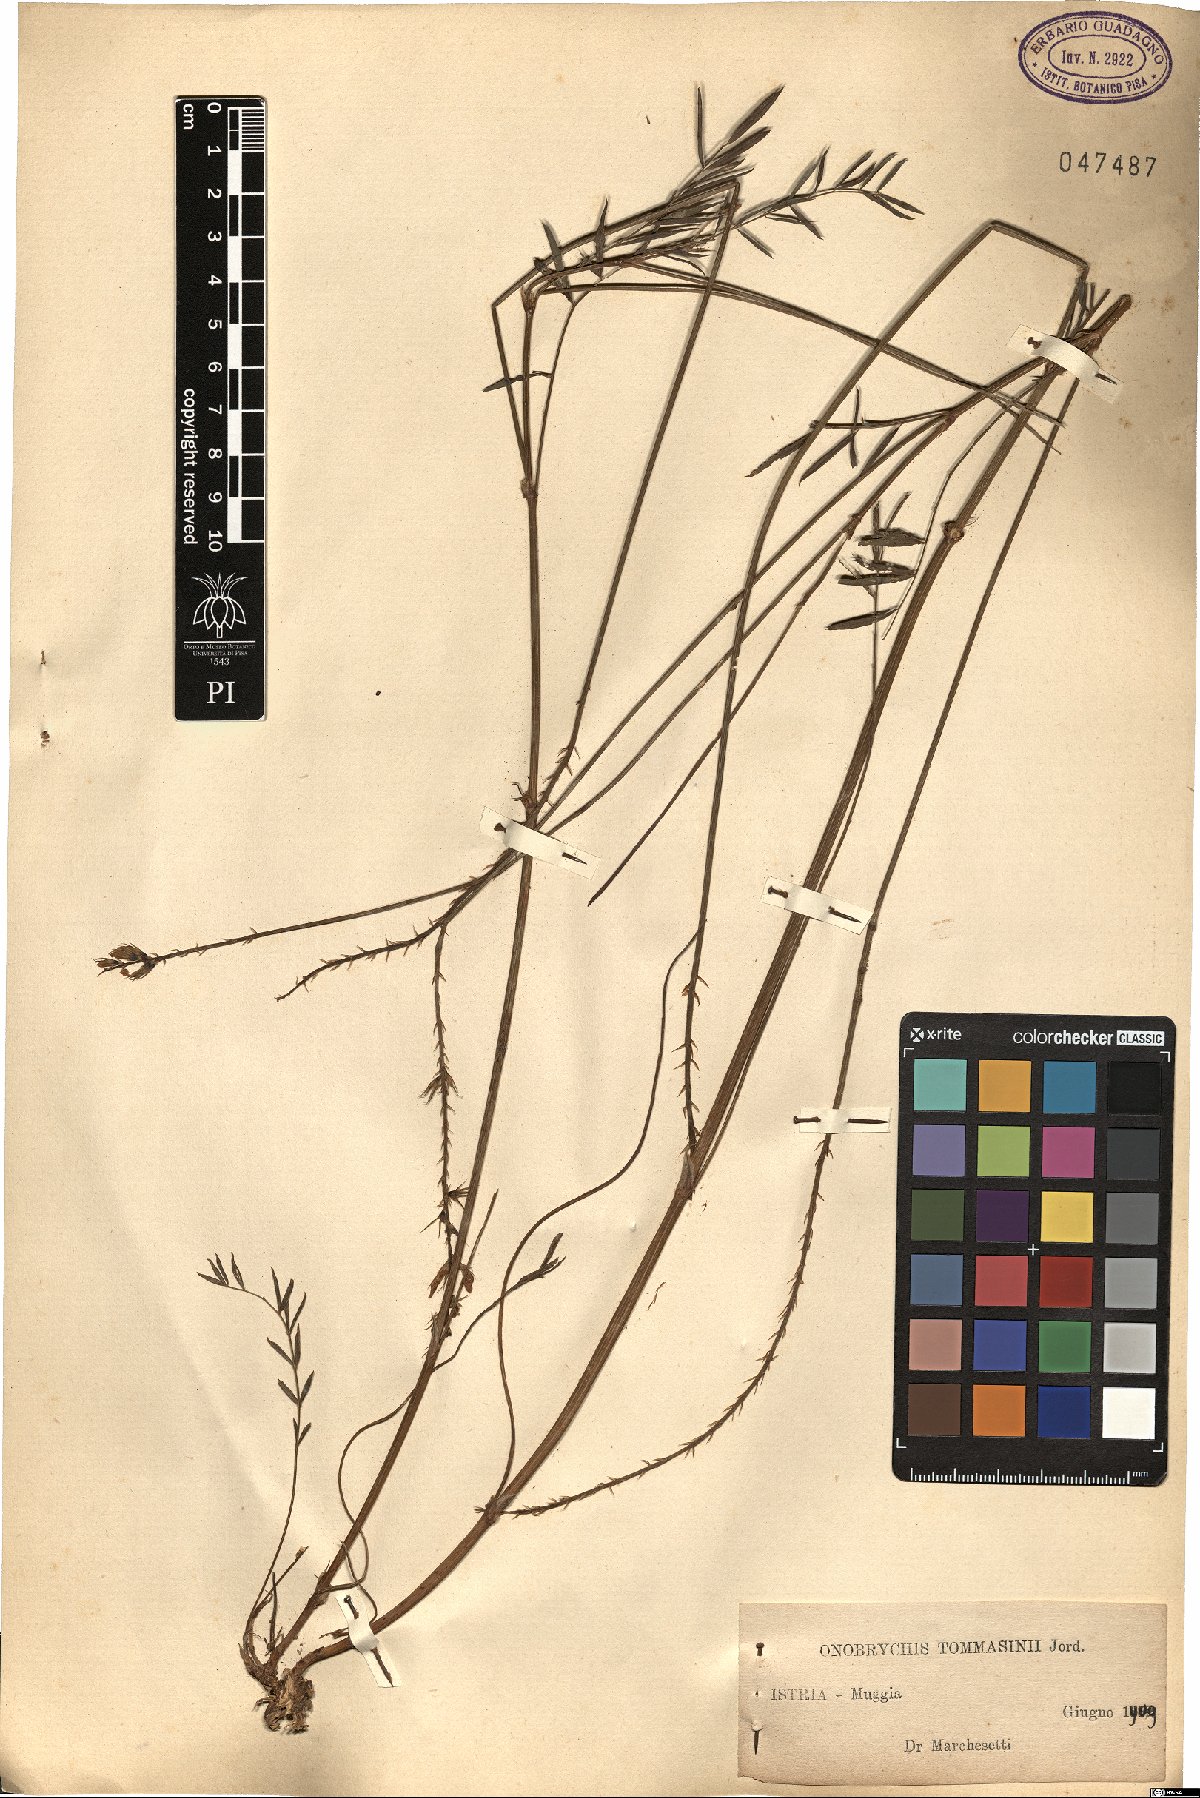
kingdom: Plantae
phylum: Tracheophyta
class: Magnoliopsida
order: Fabales
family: Fabaceae
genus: Onobrychis
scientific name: Onobrychis arenaria
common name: Sand esparcet
